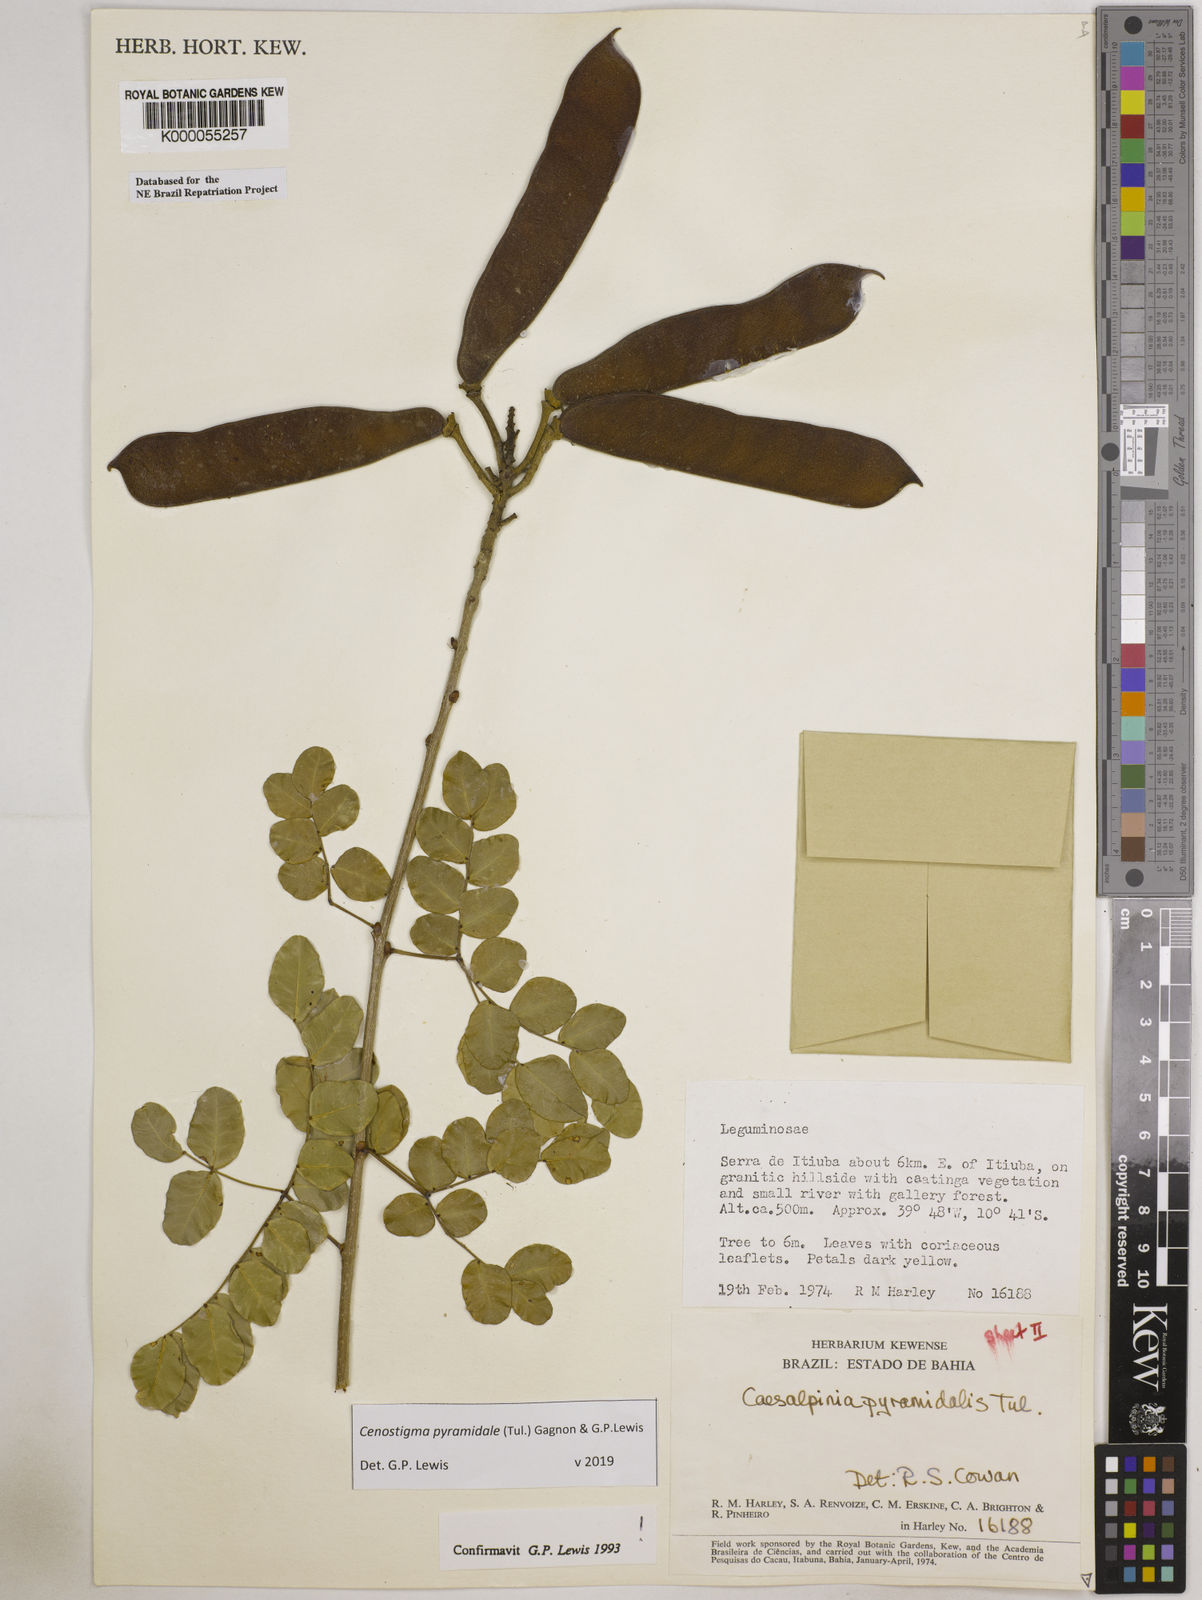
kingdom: Plantae
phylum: Tracheophyta
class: Magnoliopsida
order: Fabales
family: Fabaceae
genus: Cenostigma
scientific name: Cenostigma pyramidale
